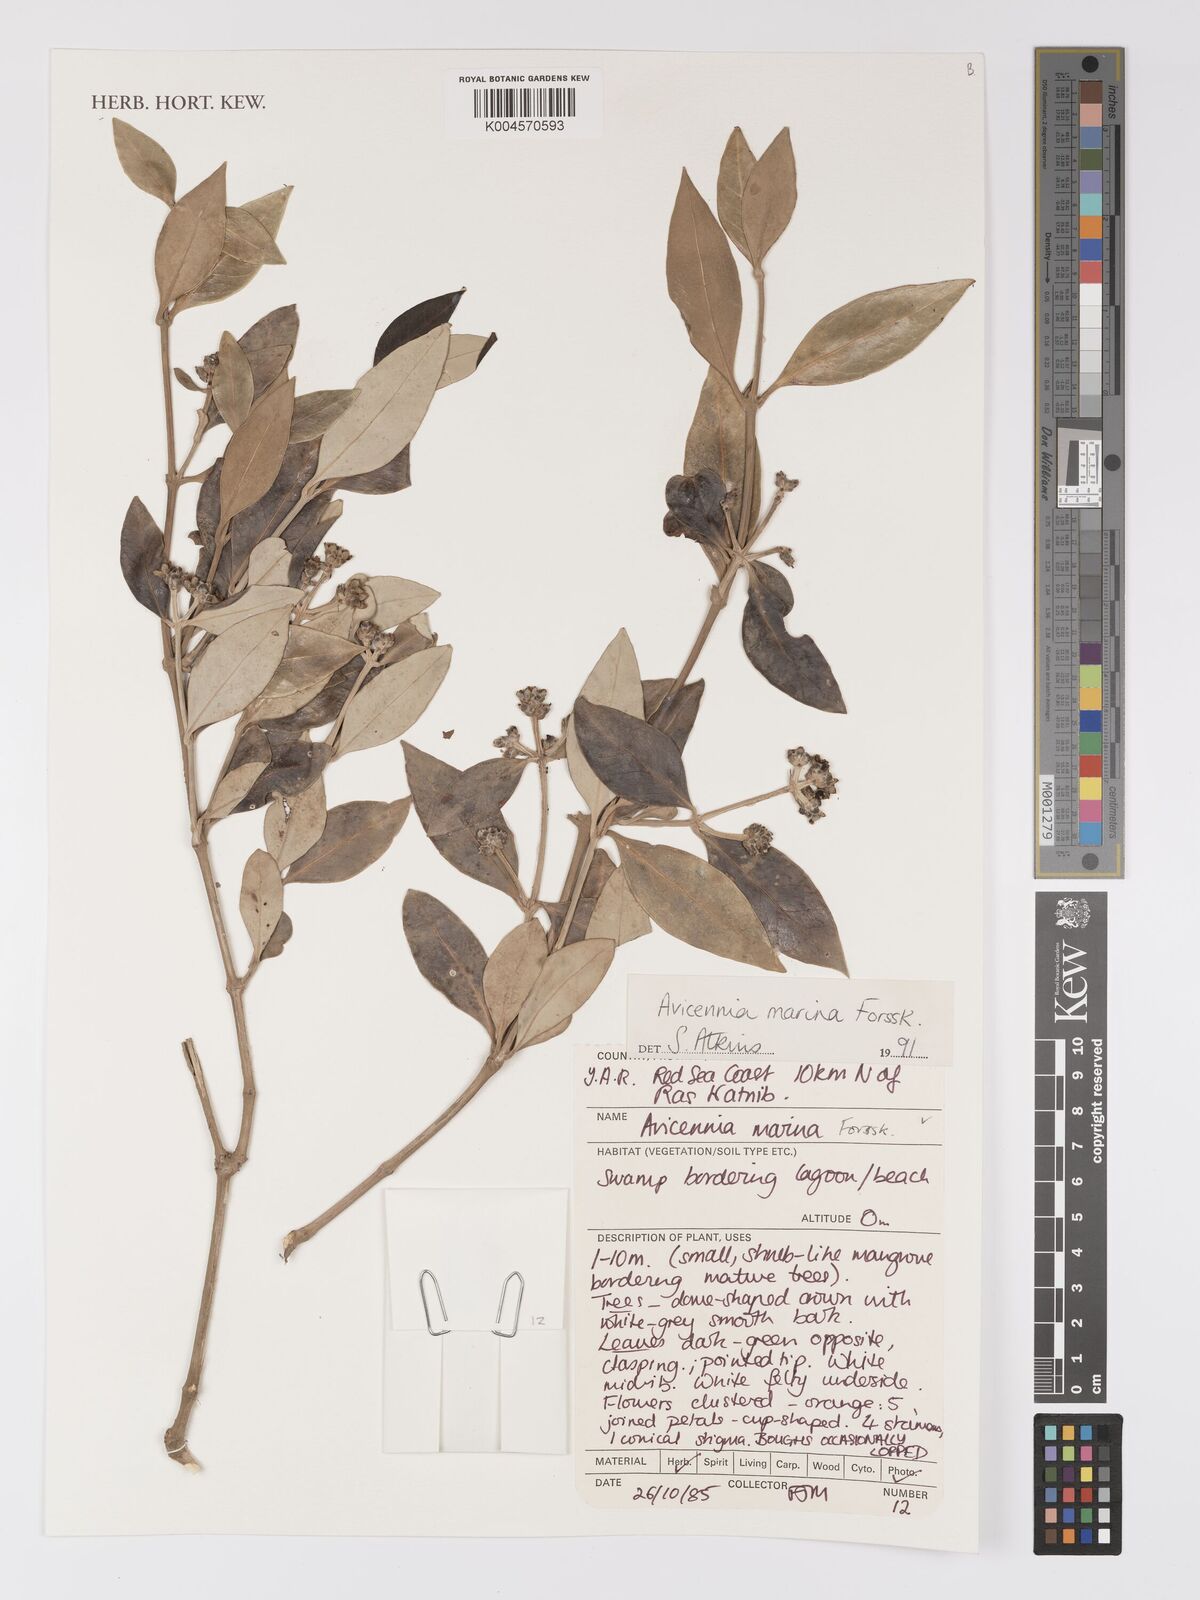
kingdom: Plantae
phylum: Tracheophyta
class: Magnoliopsida
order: Lamiales
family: Acanthaceae
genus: Avicennia
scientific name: Avicennia marina
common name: Gray mangrove
